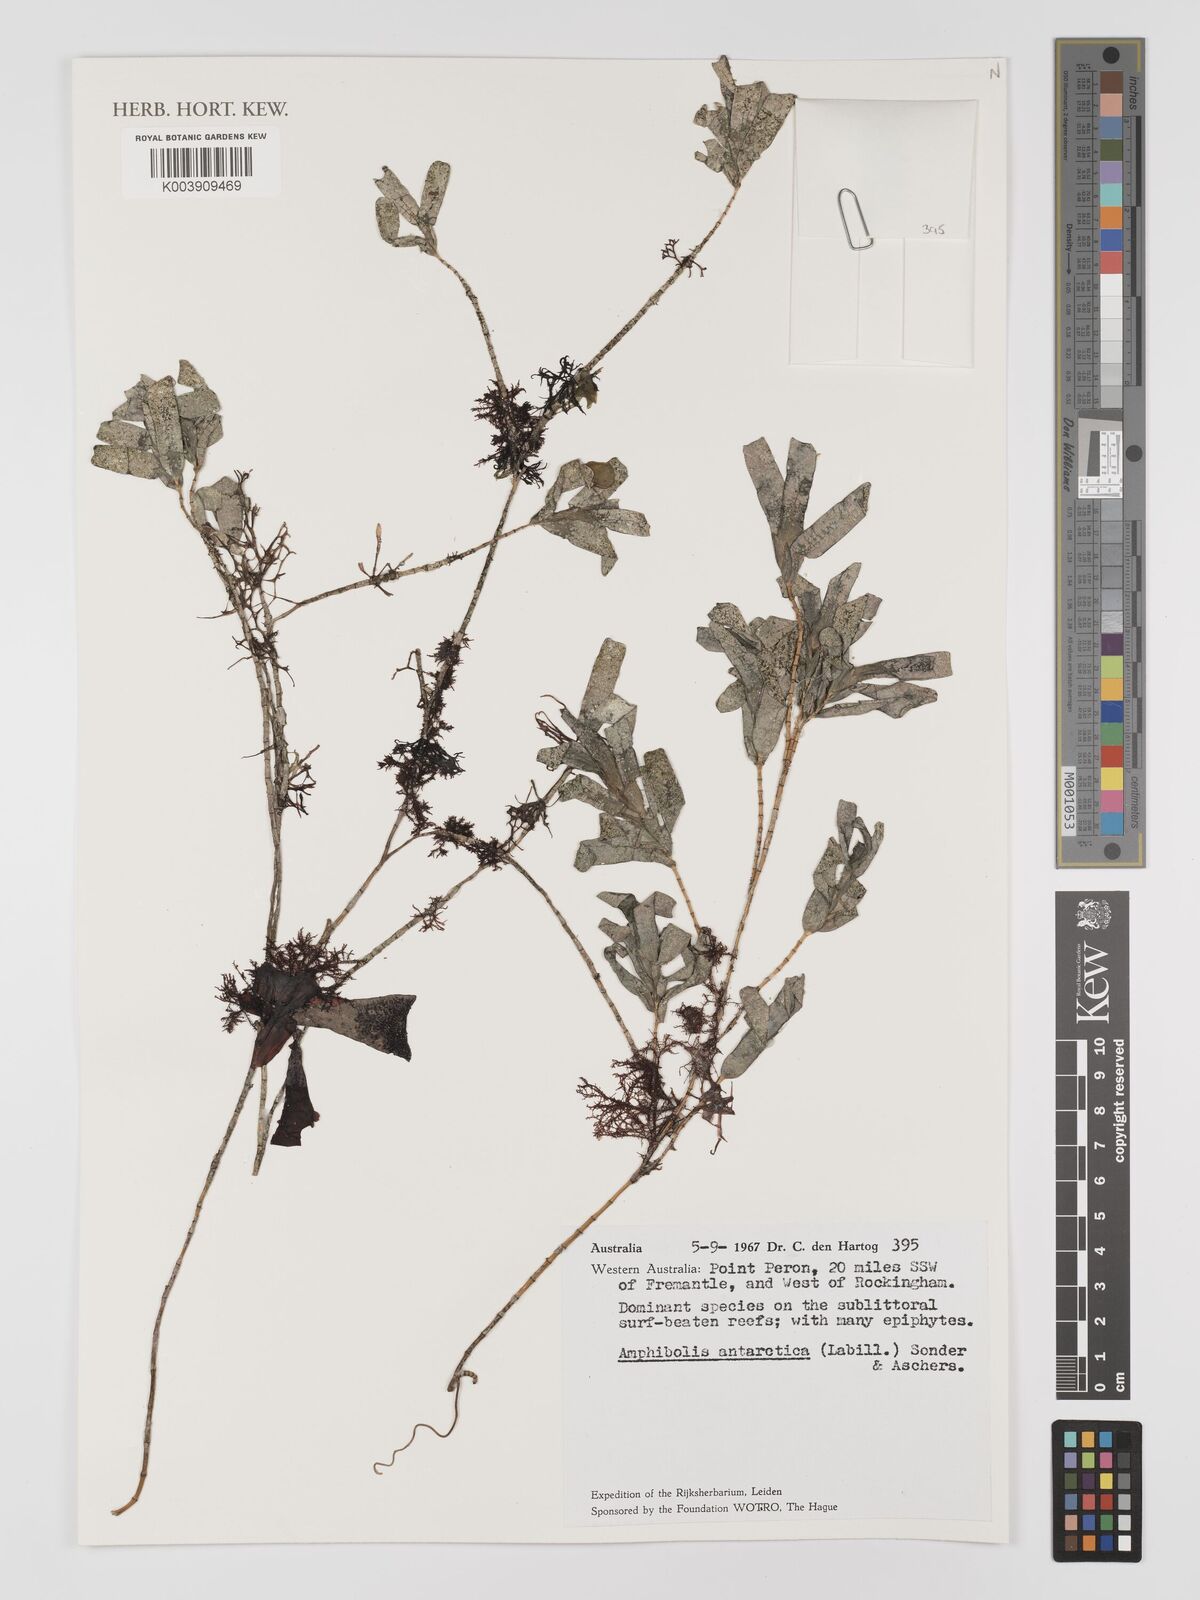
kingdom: Plantae
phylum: Tracheophyta
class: Liliopsida
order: Alismatales
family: Cymodoceaceae
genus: Amphibolis
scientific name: Amphibolis antarctica
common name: Species code: aa
